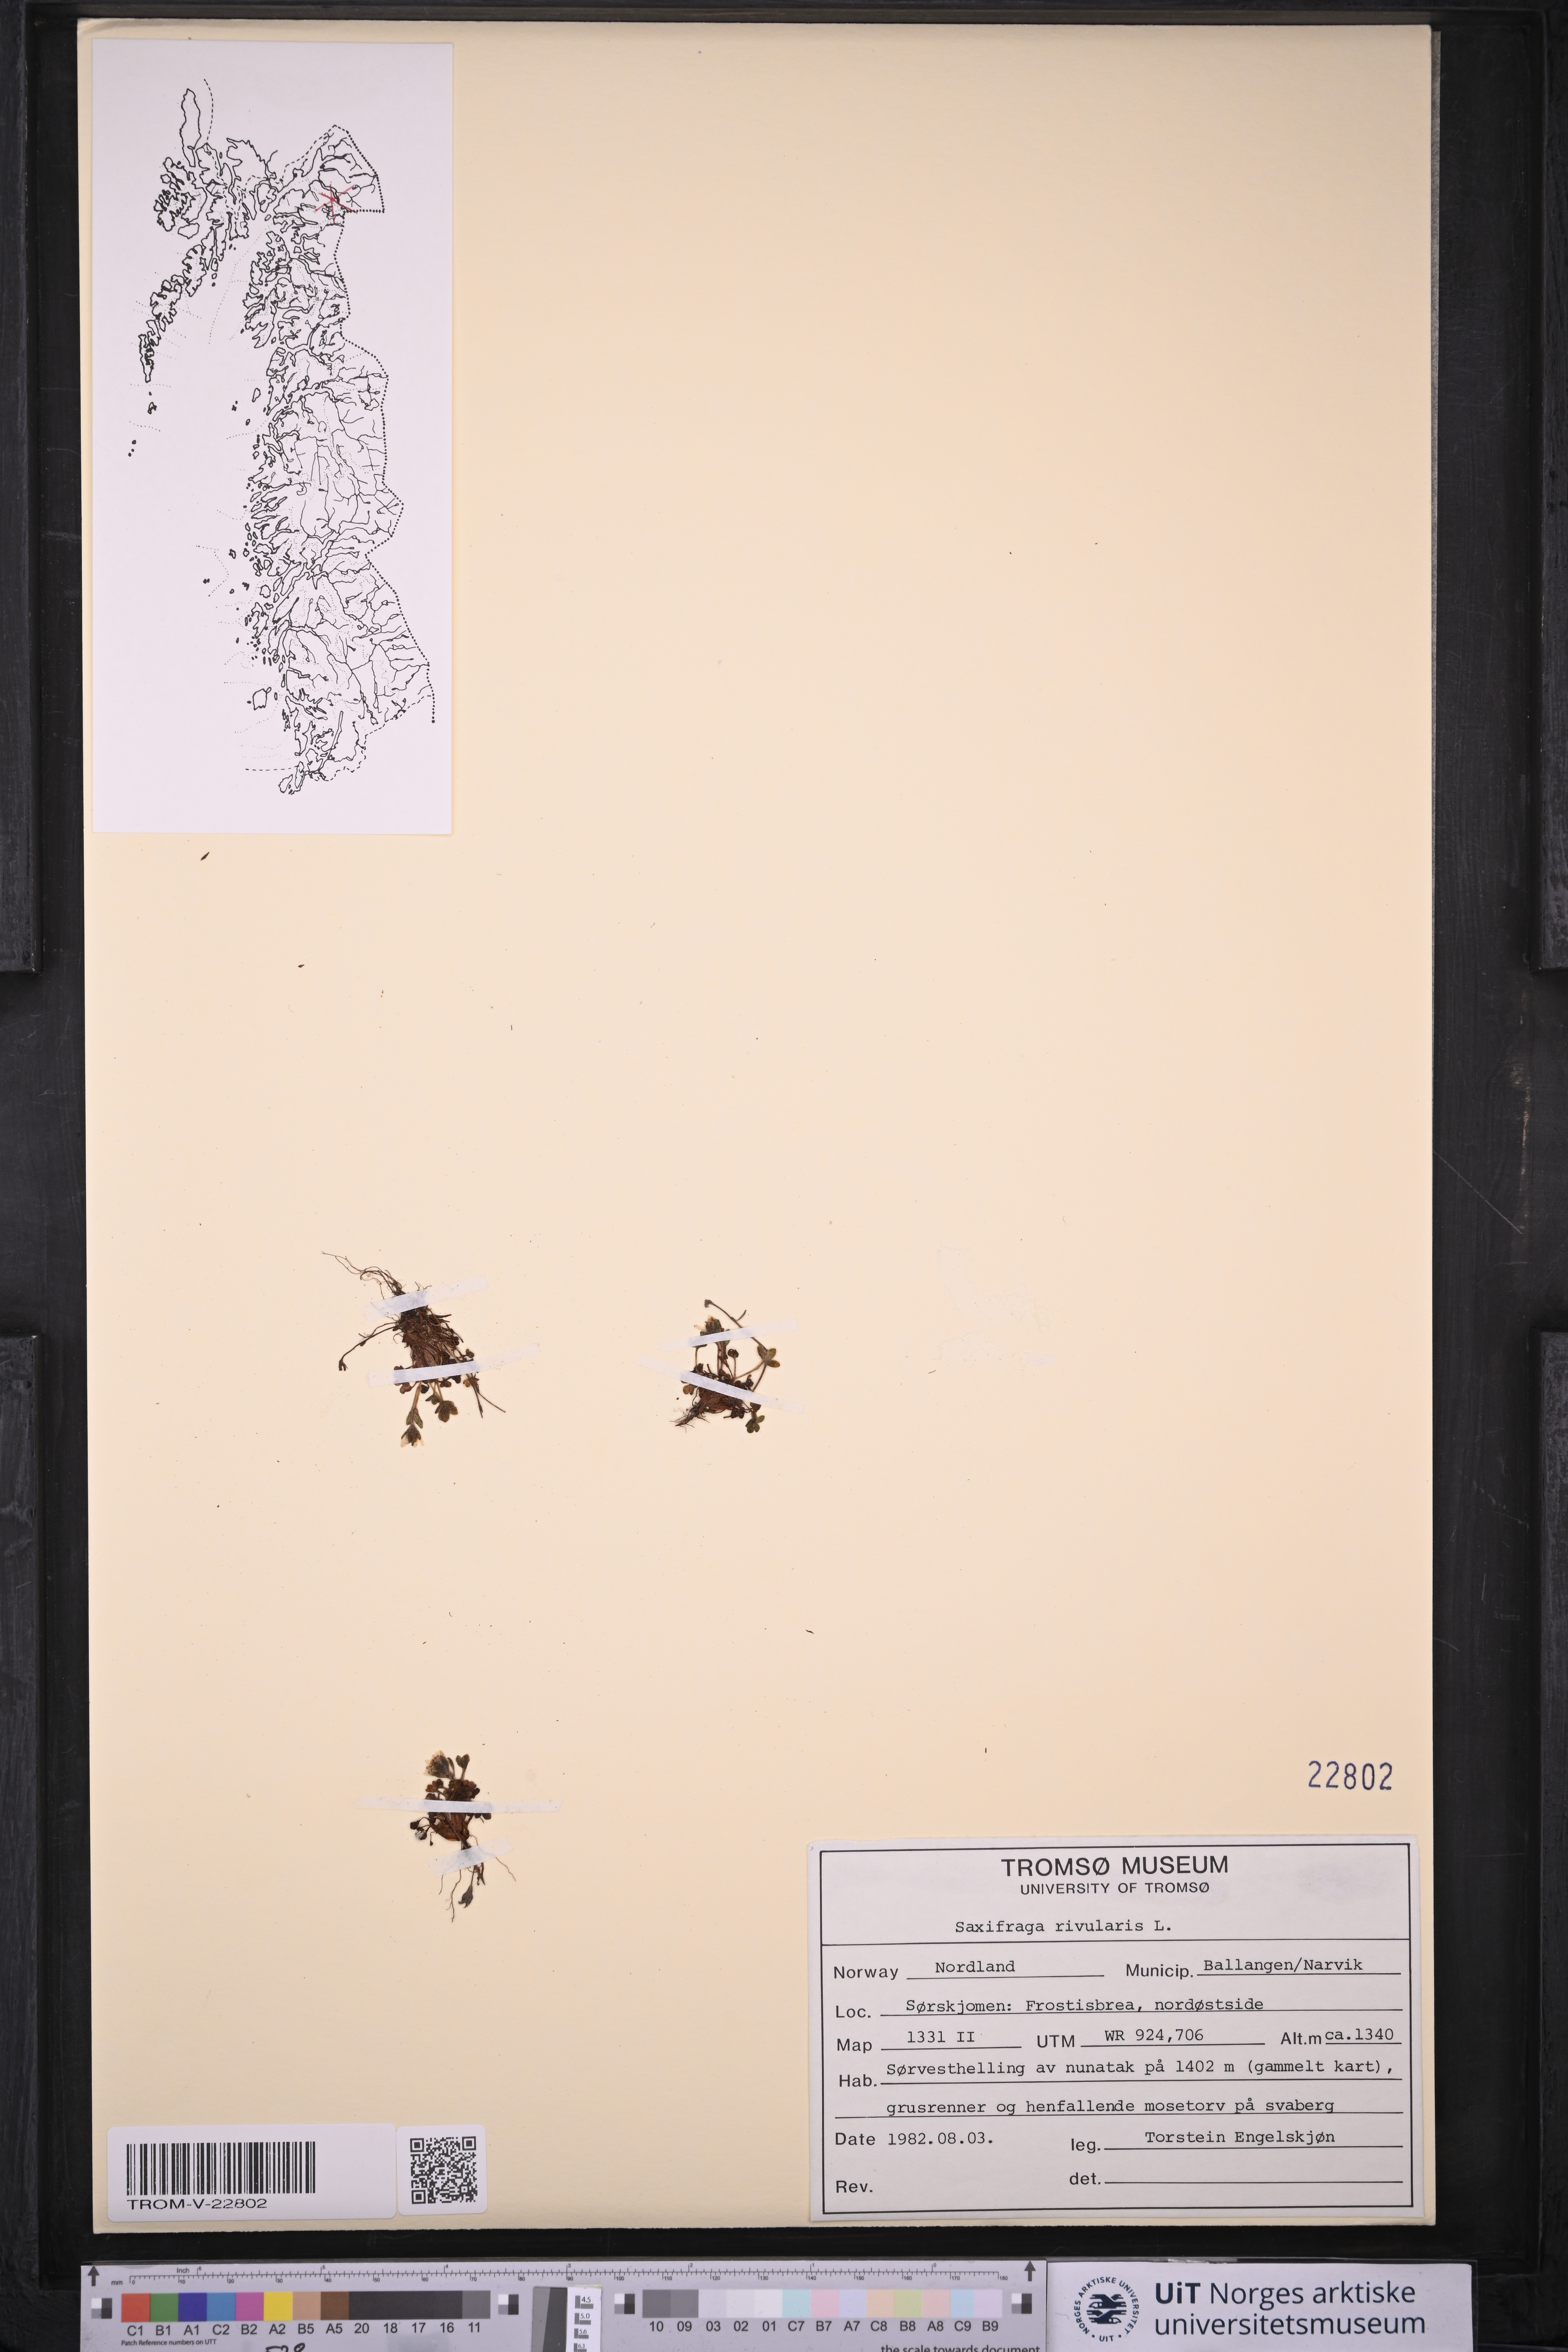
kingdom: Plantae
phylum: Tracheophyta
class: Magnoliopsida
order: Saxifragales
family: Saxifragaceae
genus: Saxifraga
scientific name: Saxifraga rivularis
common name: Highland saxifrage
